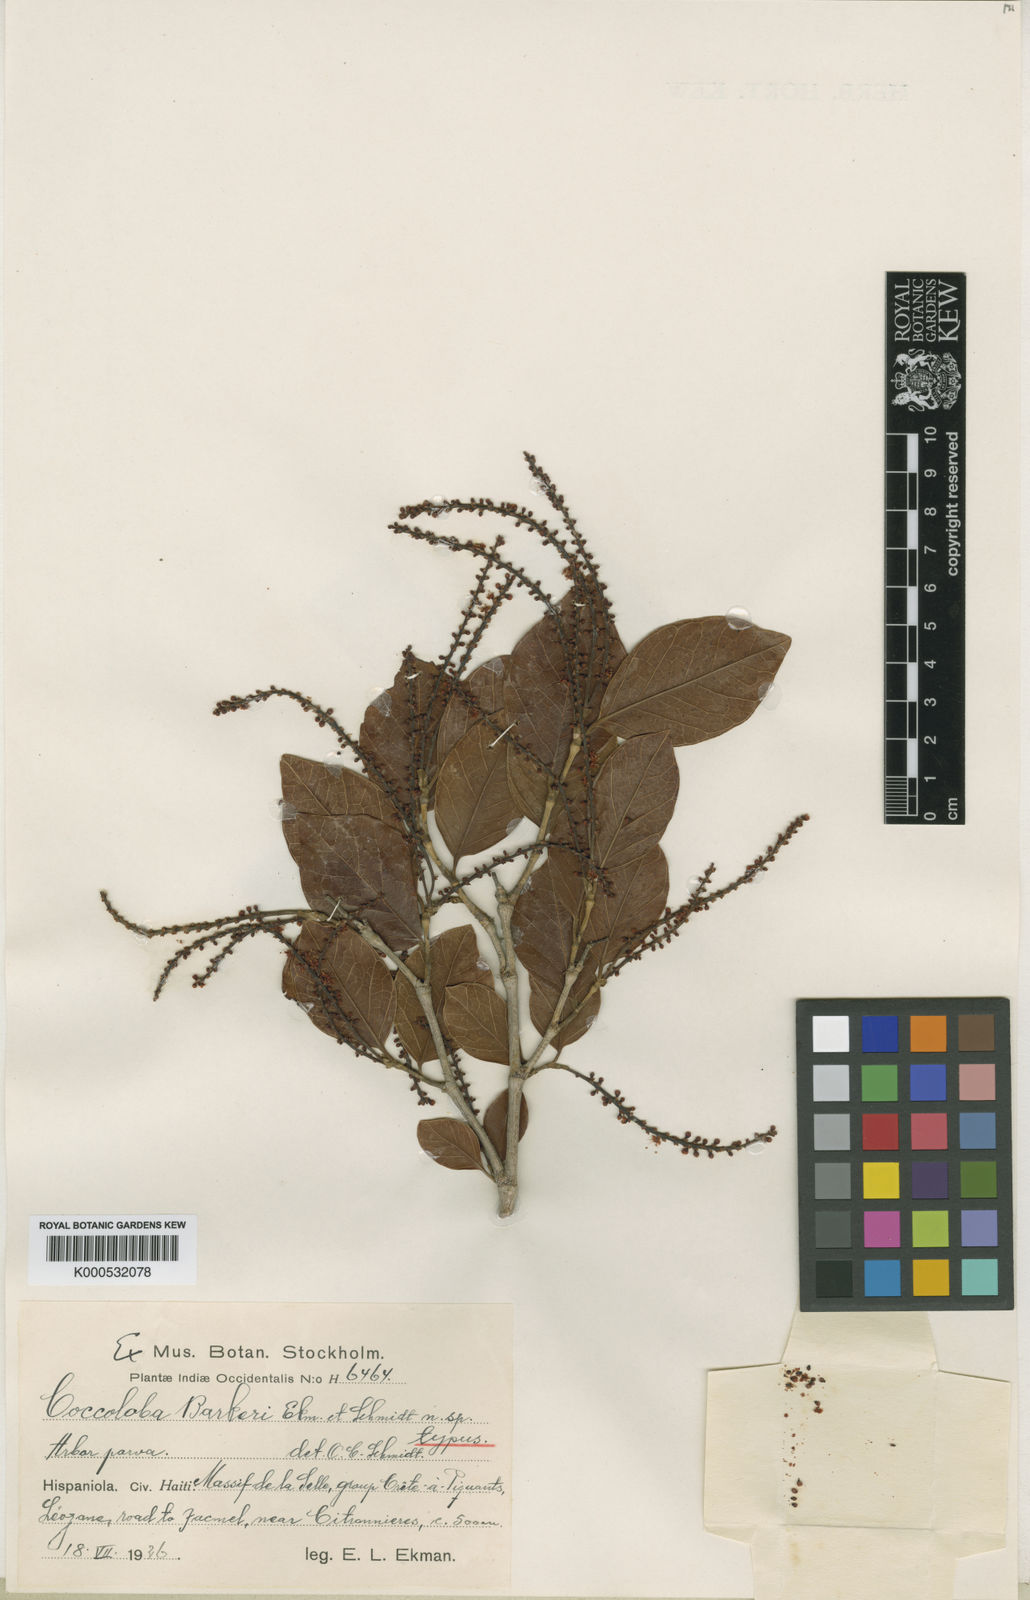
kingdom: Plantae
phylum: Tracheophyta
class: Magnoliopsida
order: Caryophyllales
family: Polygonaceae
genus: Coccoloba
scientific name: Coccoloba barkeri
